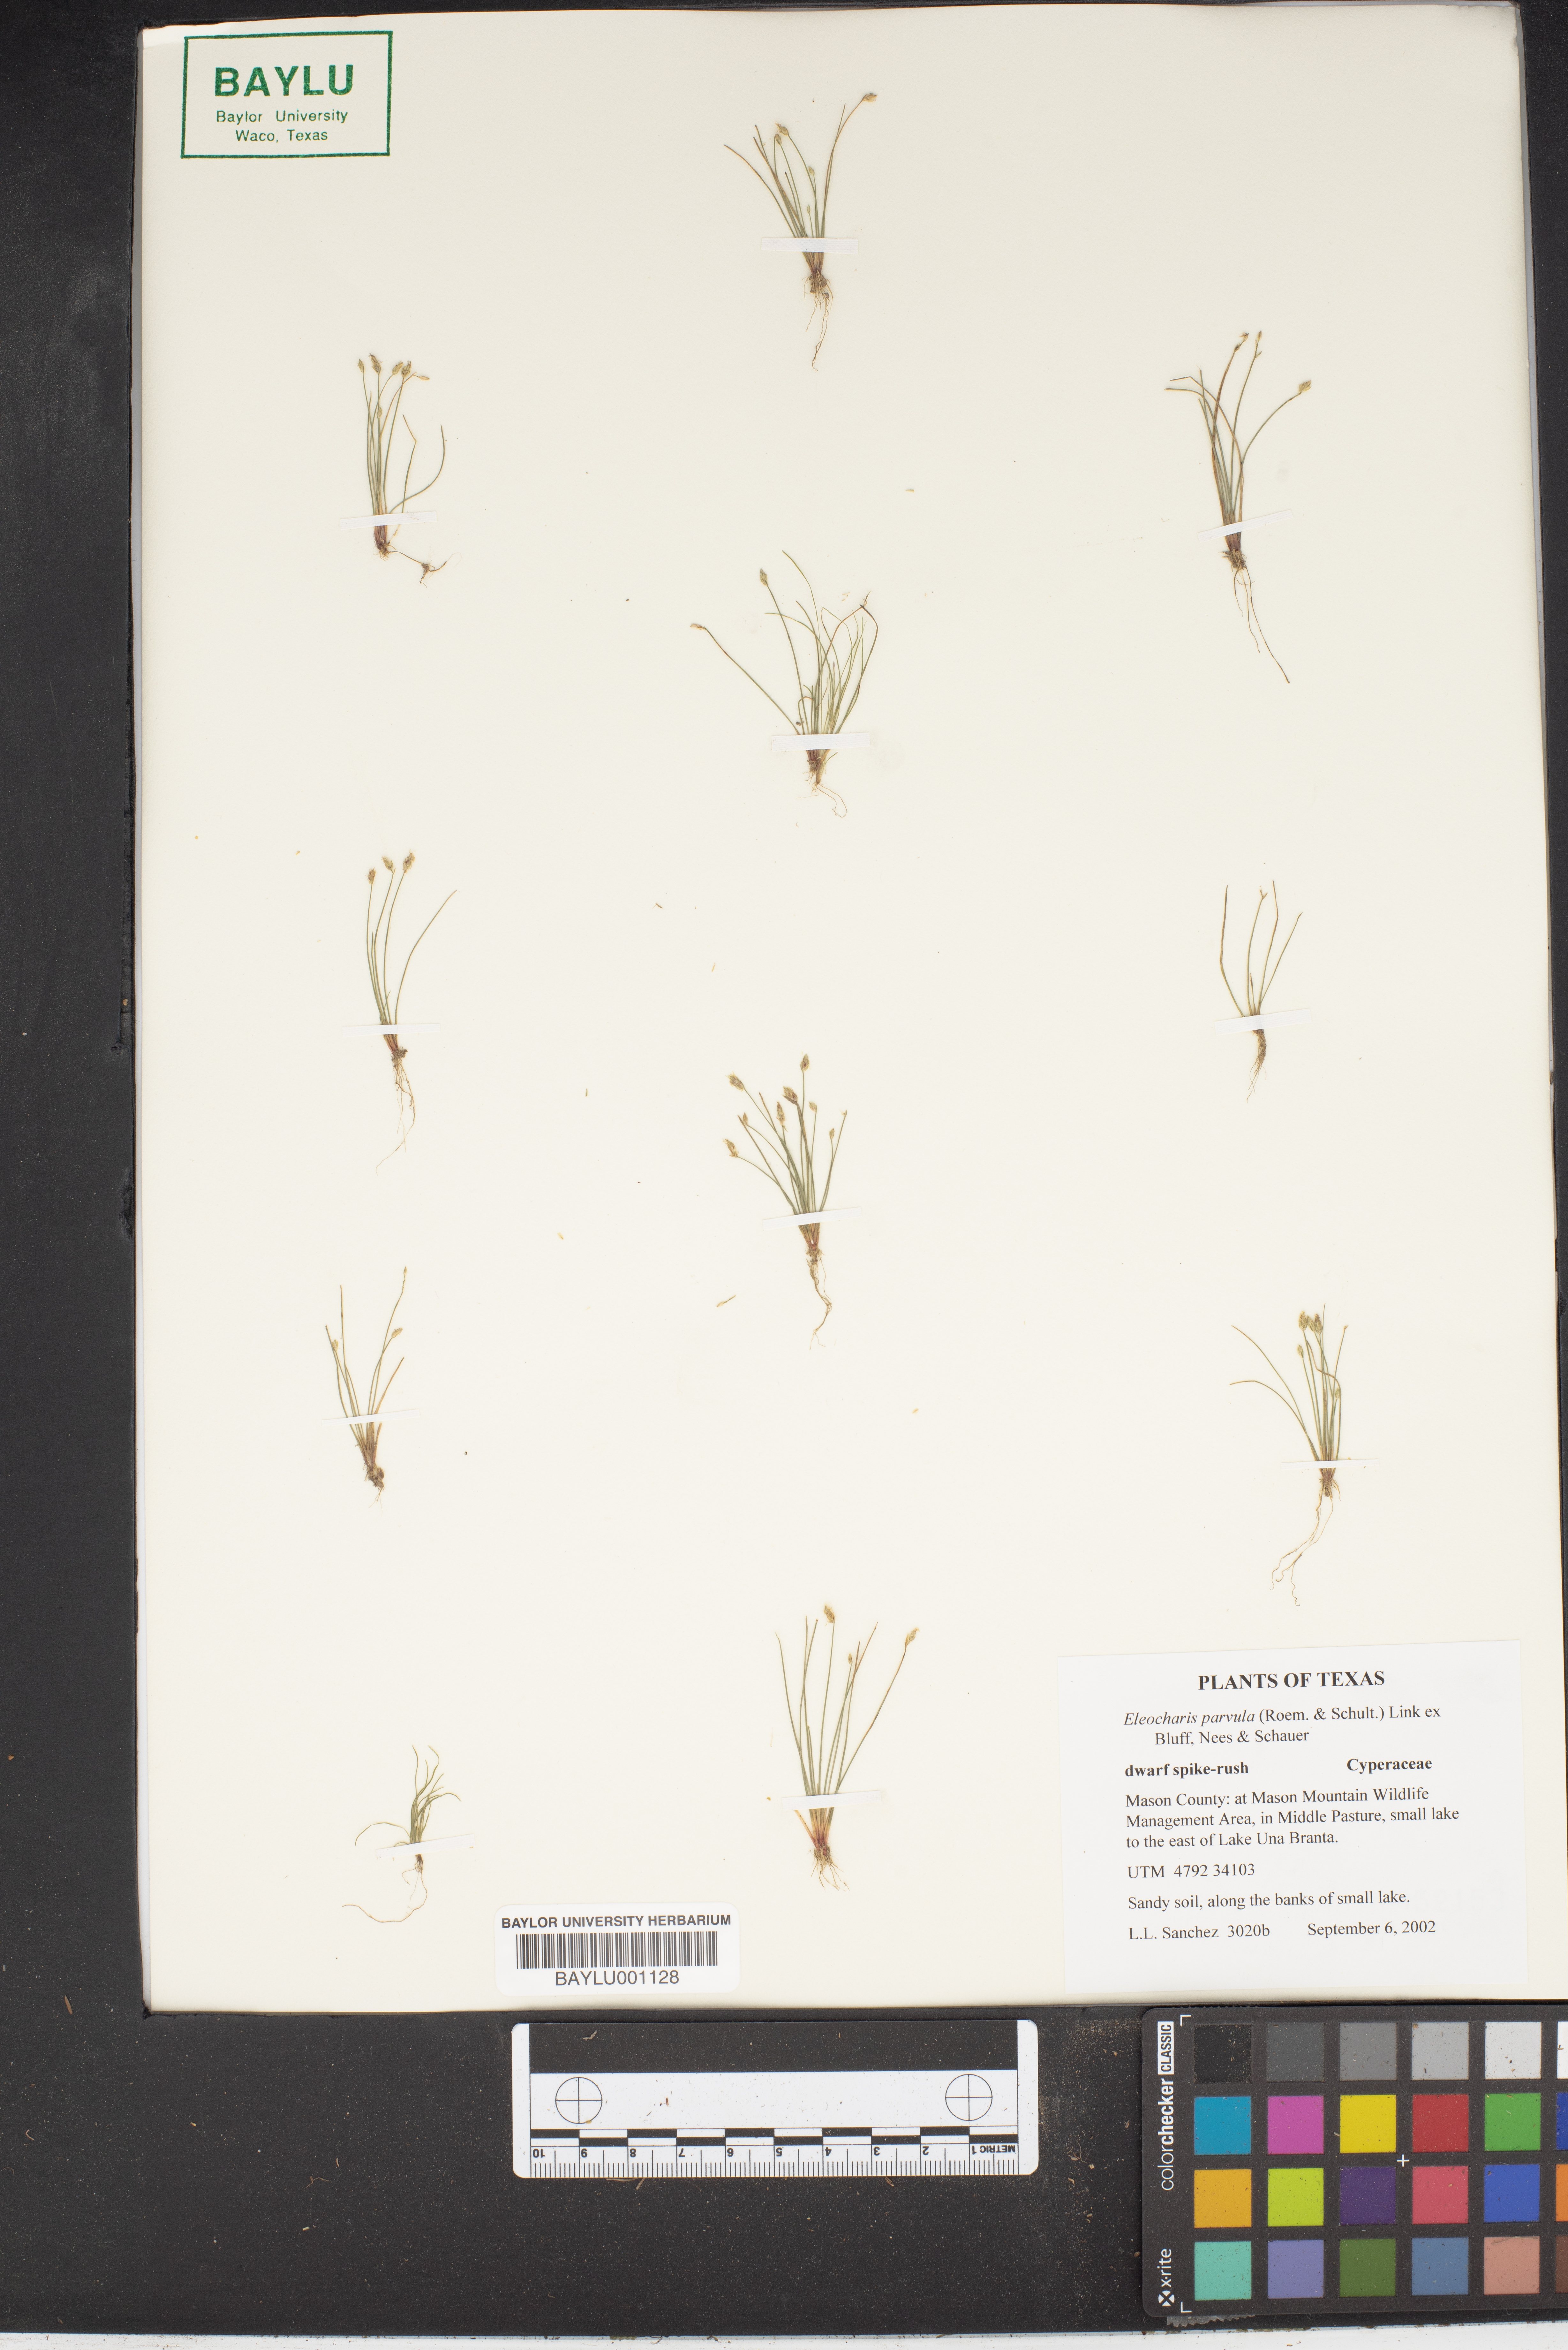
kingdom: Plantae
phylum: Tracheophyta
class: Liliopsida
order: Poales
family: Cyperaceae
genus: Eleocharis
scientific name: Eleocharis parvula
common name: Dwarf spike-rush
